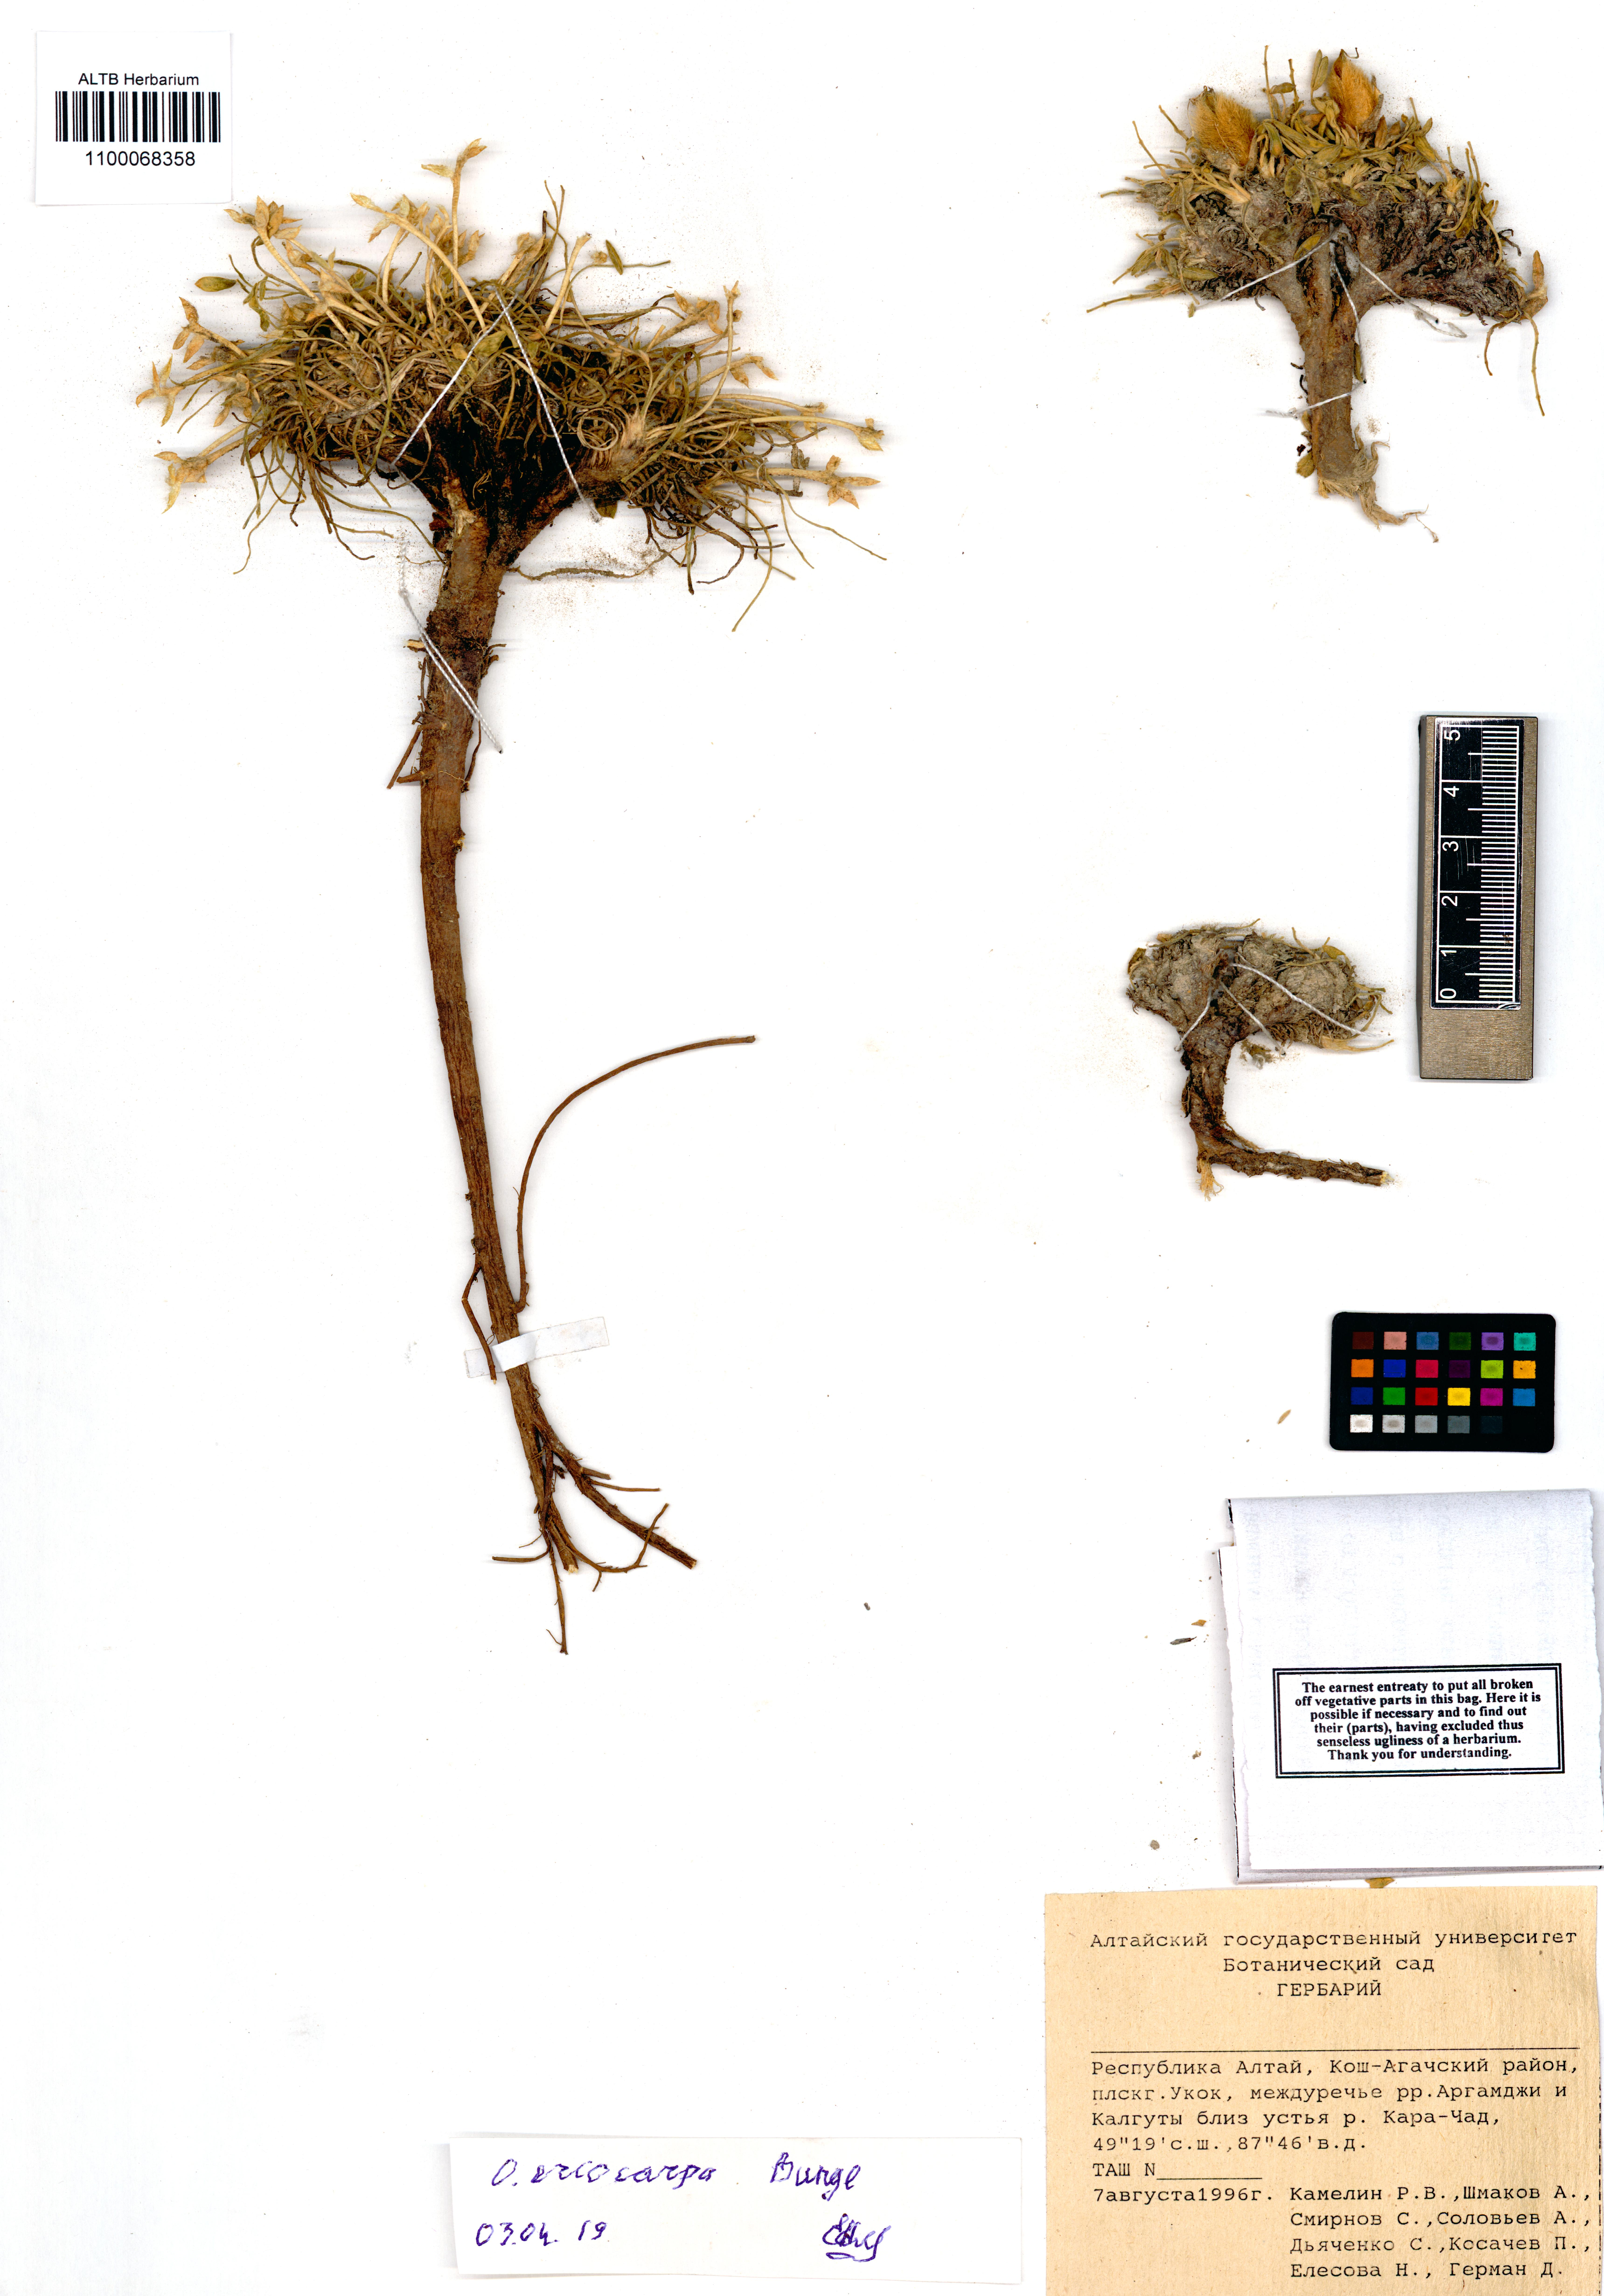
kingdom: Plantae
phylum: Tracheophyta
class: Magnoliopsida
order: Fabales
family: Fabaceae
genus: Oxytropis
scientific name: Oxytropis eriocarpa
